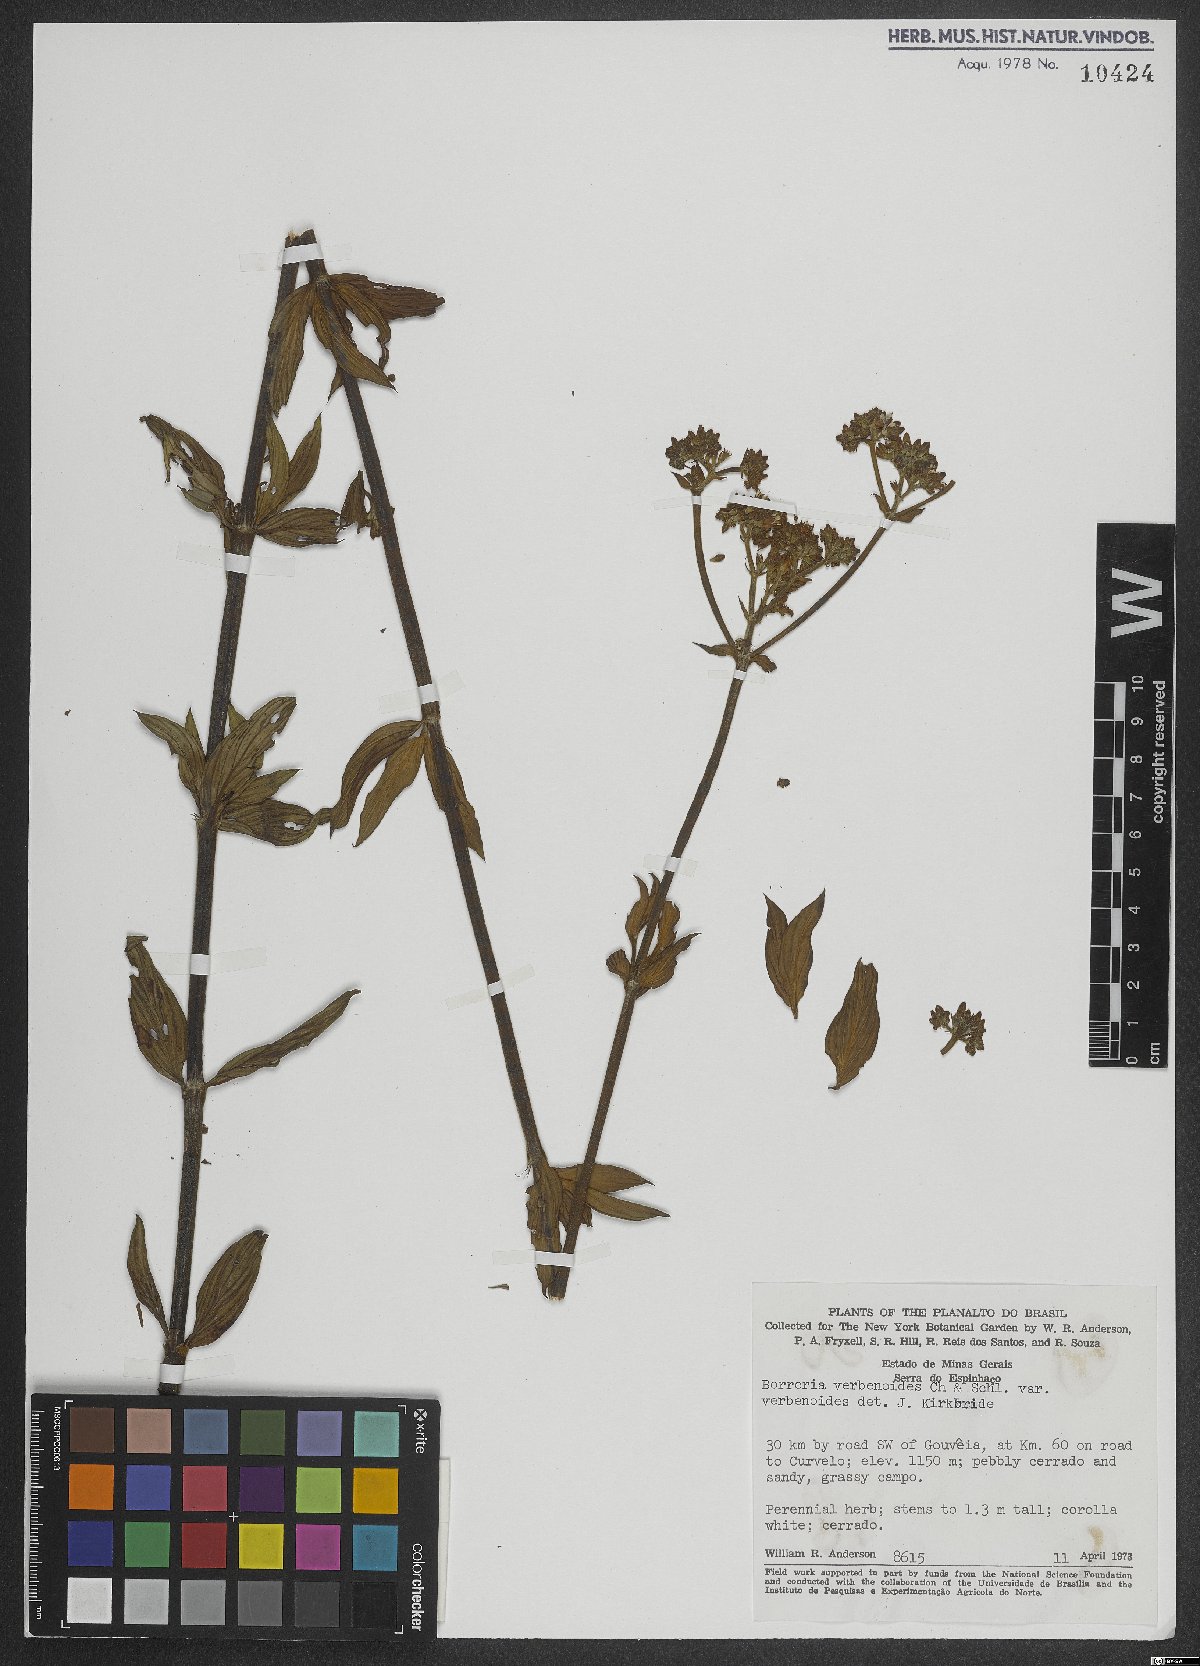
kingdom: Plantae
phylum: Tracheophyta
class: Magnoliopsida
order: Gentianales
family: Rubiaceae
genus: Spermacoce
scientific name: Spermacoce verbenoides
